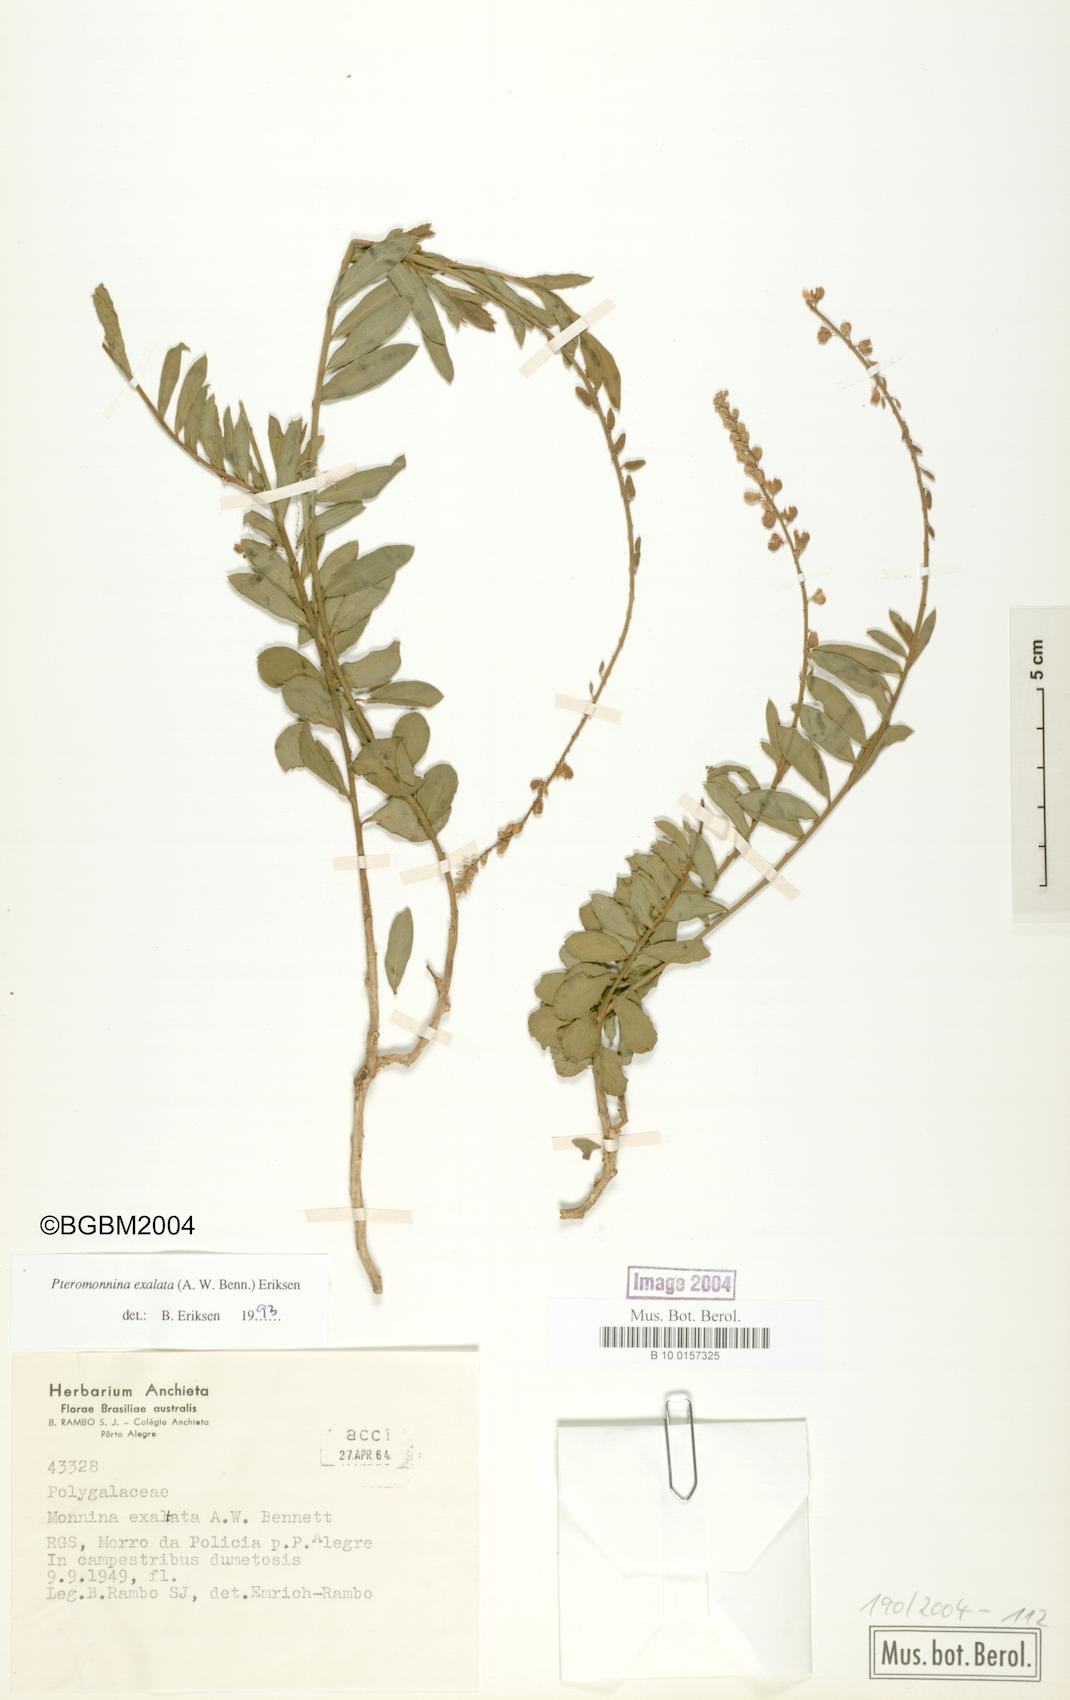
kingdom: Plantae
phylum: Tracheophyta
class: Magnoliopsida
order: Fabales
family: Polygalaceae
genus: Monnina
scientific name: Monnina exalata
